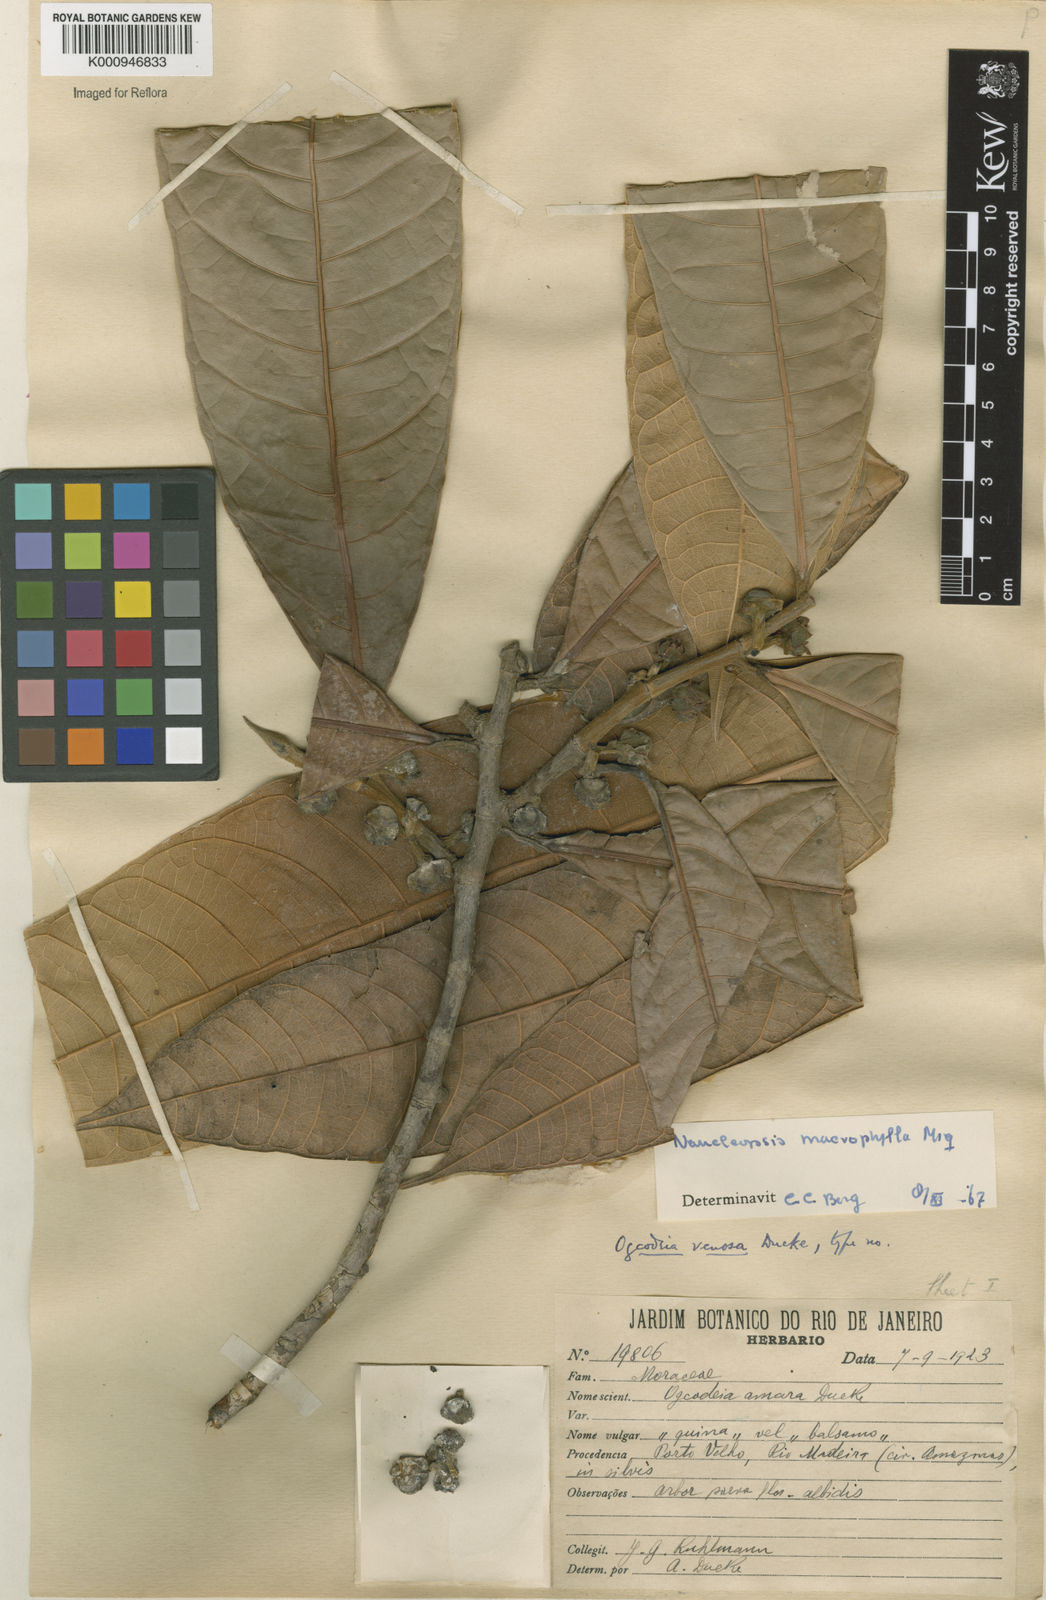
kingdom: Plantae
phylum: Tracheophyta
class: Magnoliopsida
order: Rosales
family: Moraceae
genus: Naucleopsis
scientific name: Naucleopsis macrophylla
